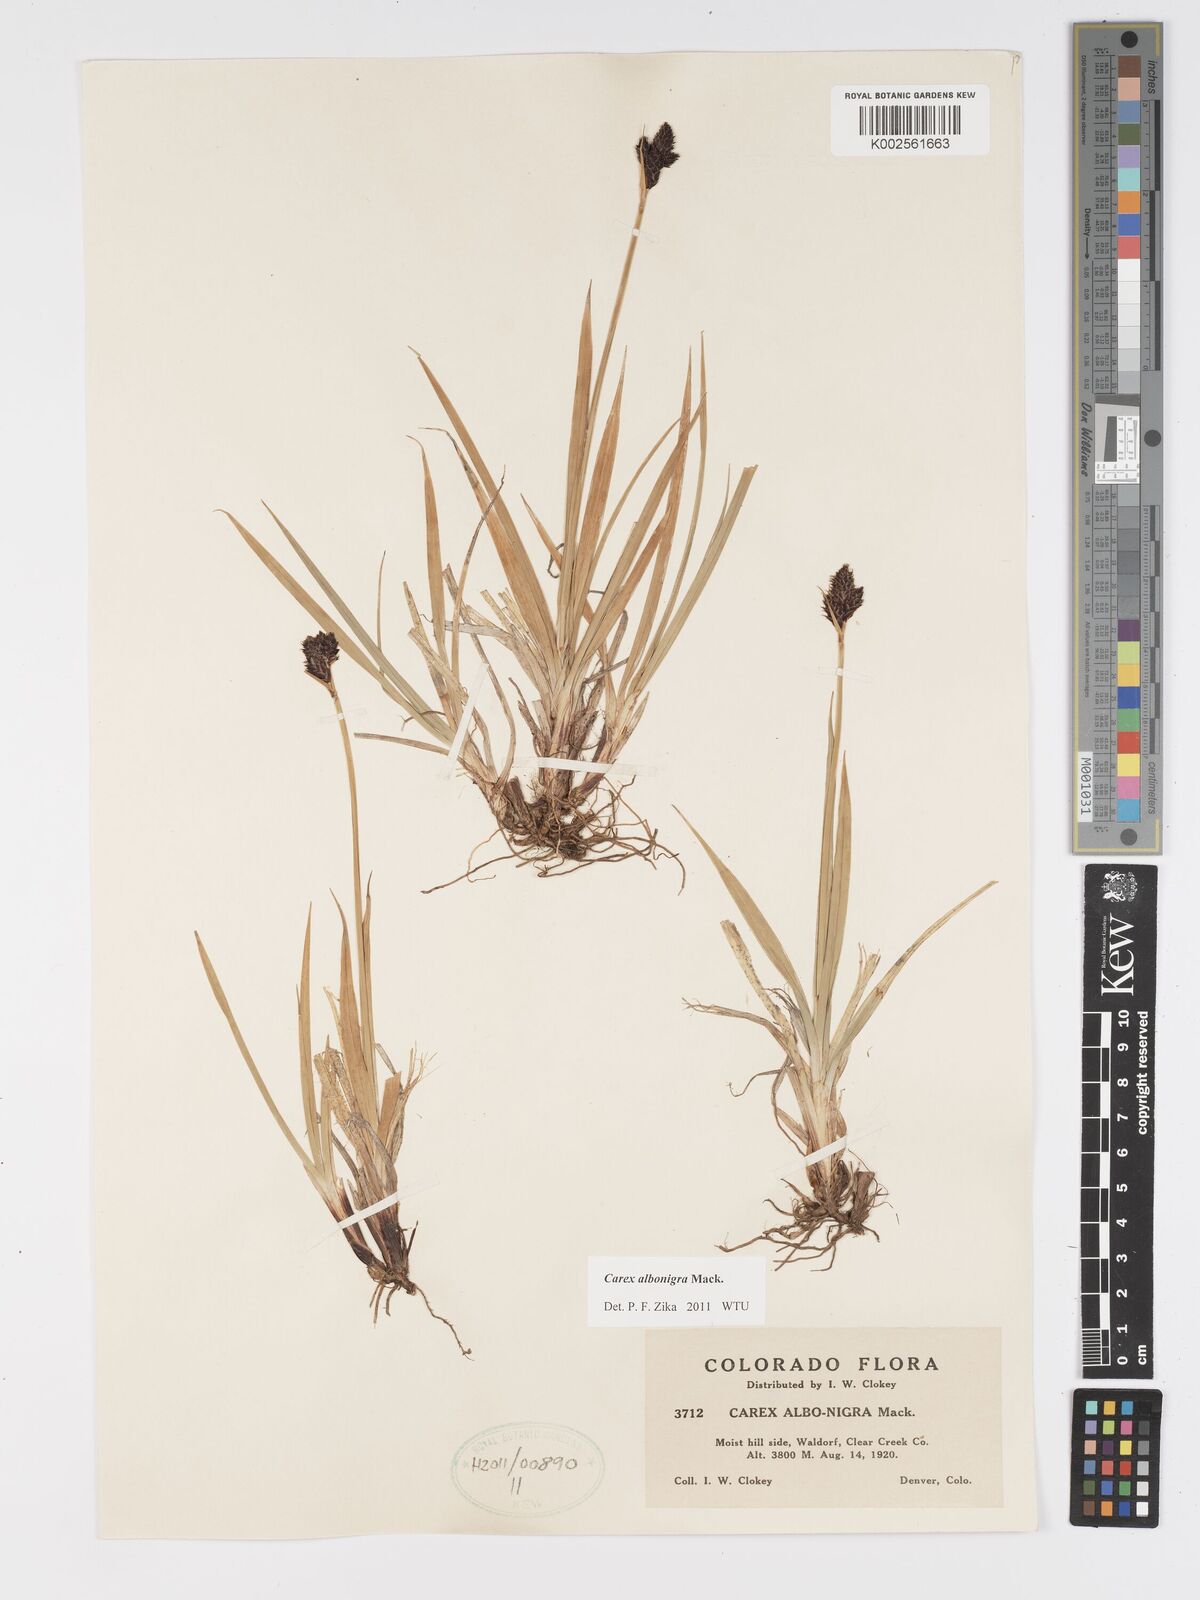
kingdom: Plantae
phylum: Tracheophyta
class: Liliopsida
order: Poales
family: Cyperaceae
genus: Carex
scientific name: Carex albonigra
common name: Black-and-white sedge
